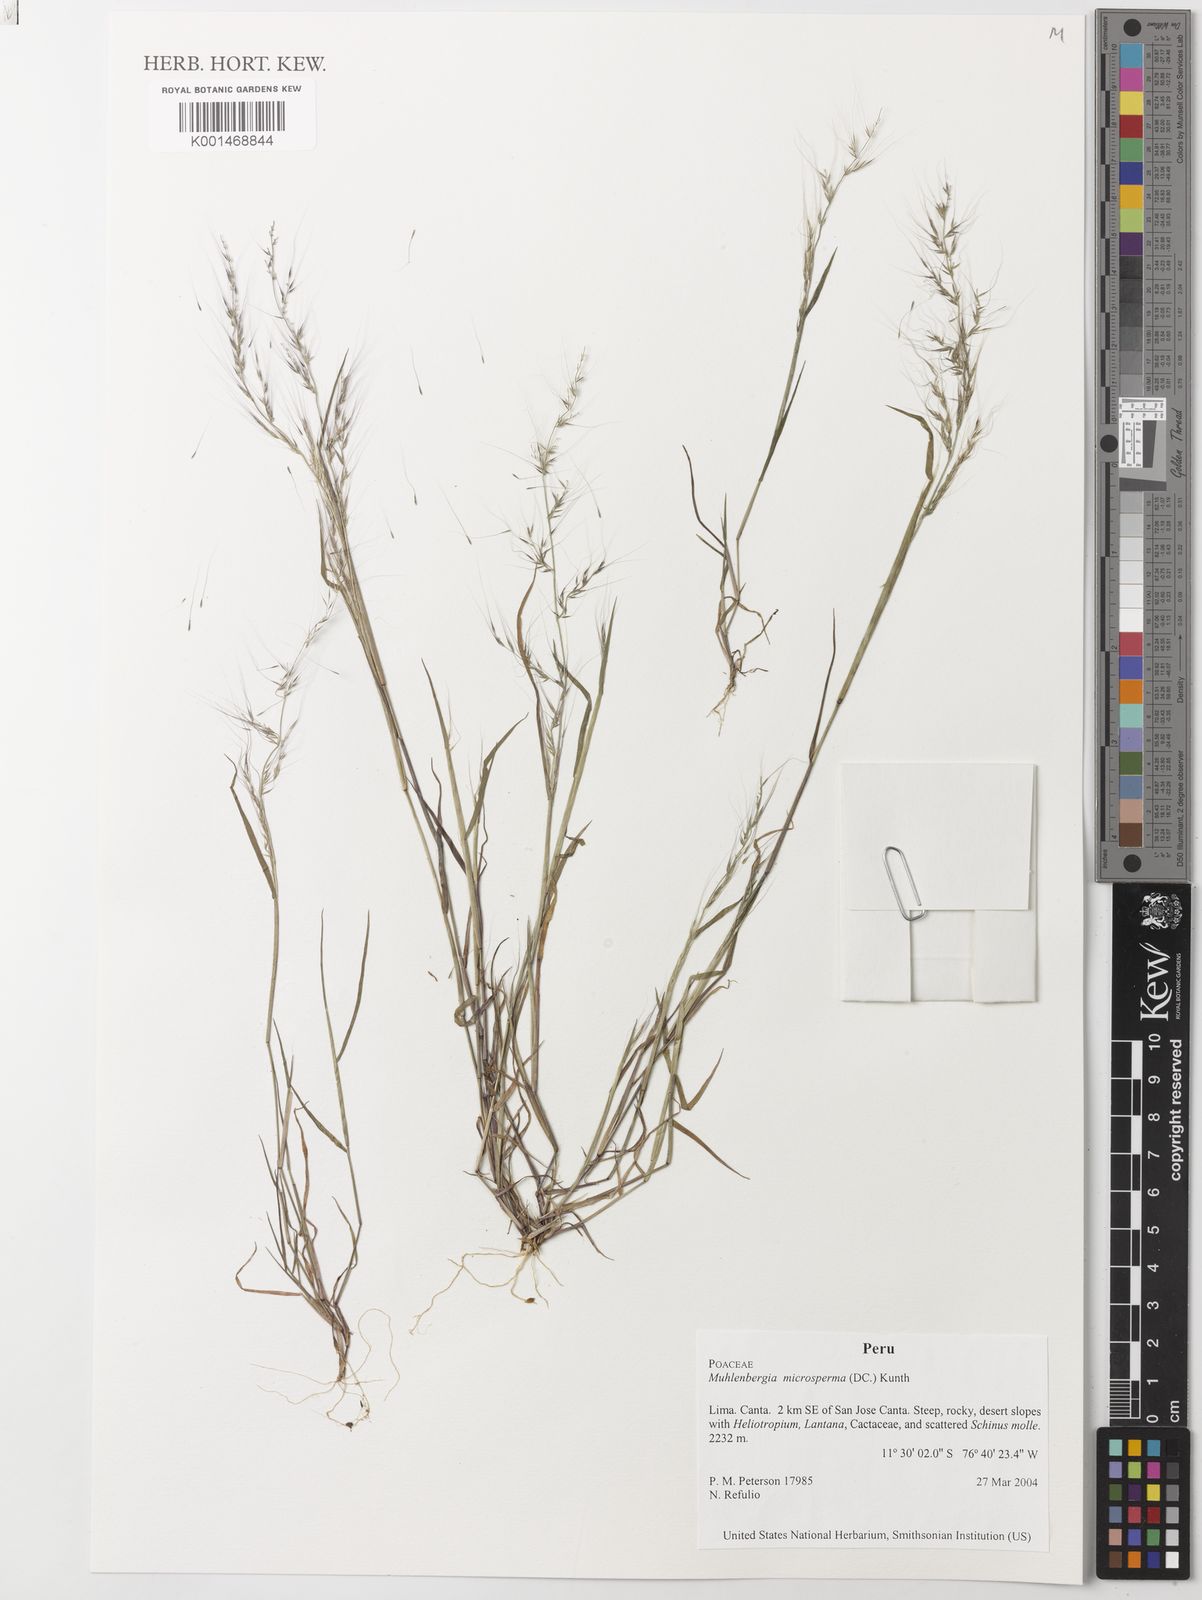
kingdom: Plantae
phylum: Tracheophyta
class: Liliopsida
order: Poales
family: Poaceae
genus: Muhlenbergia
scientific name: Muhlenbergia microsperma
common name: Littleseed muhly
